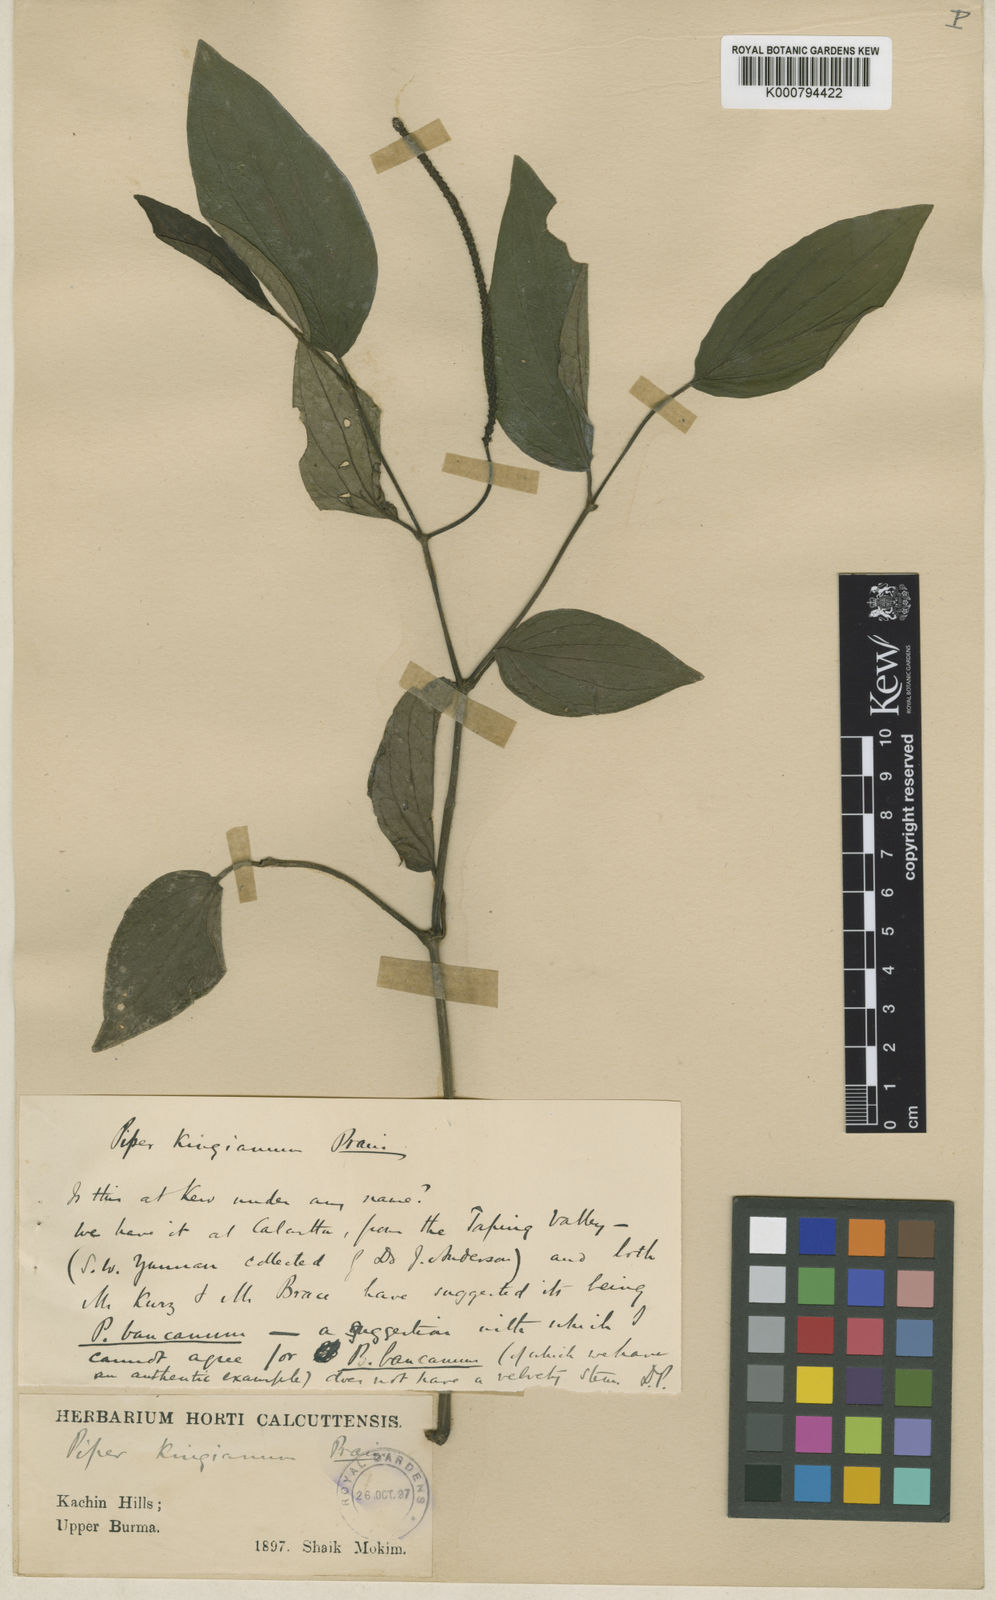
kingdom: Plantae
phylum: Tracheophyta
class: Magnoliopsida
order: Piperales
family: Piperaceae
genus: Piper
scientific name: Piper
